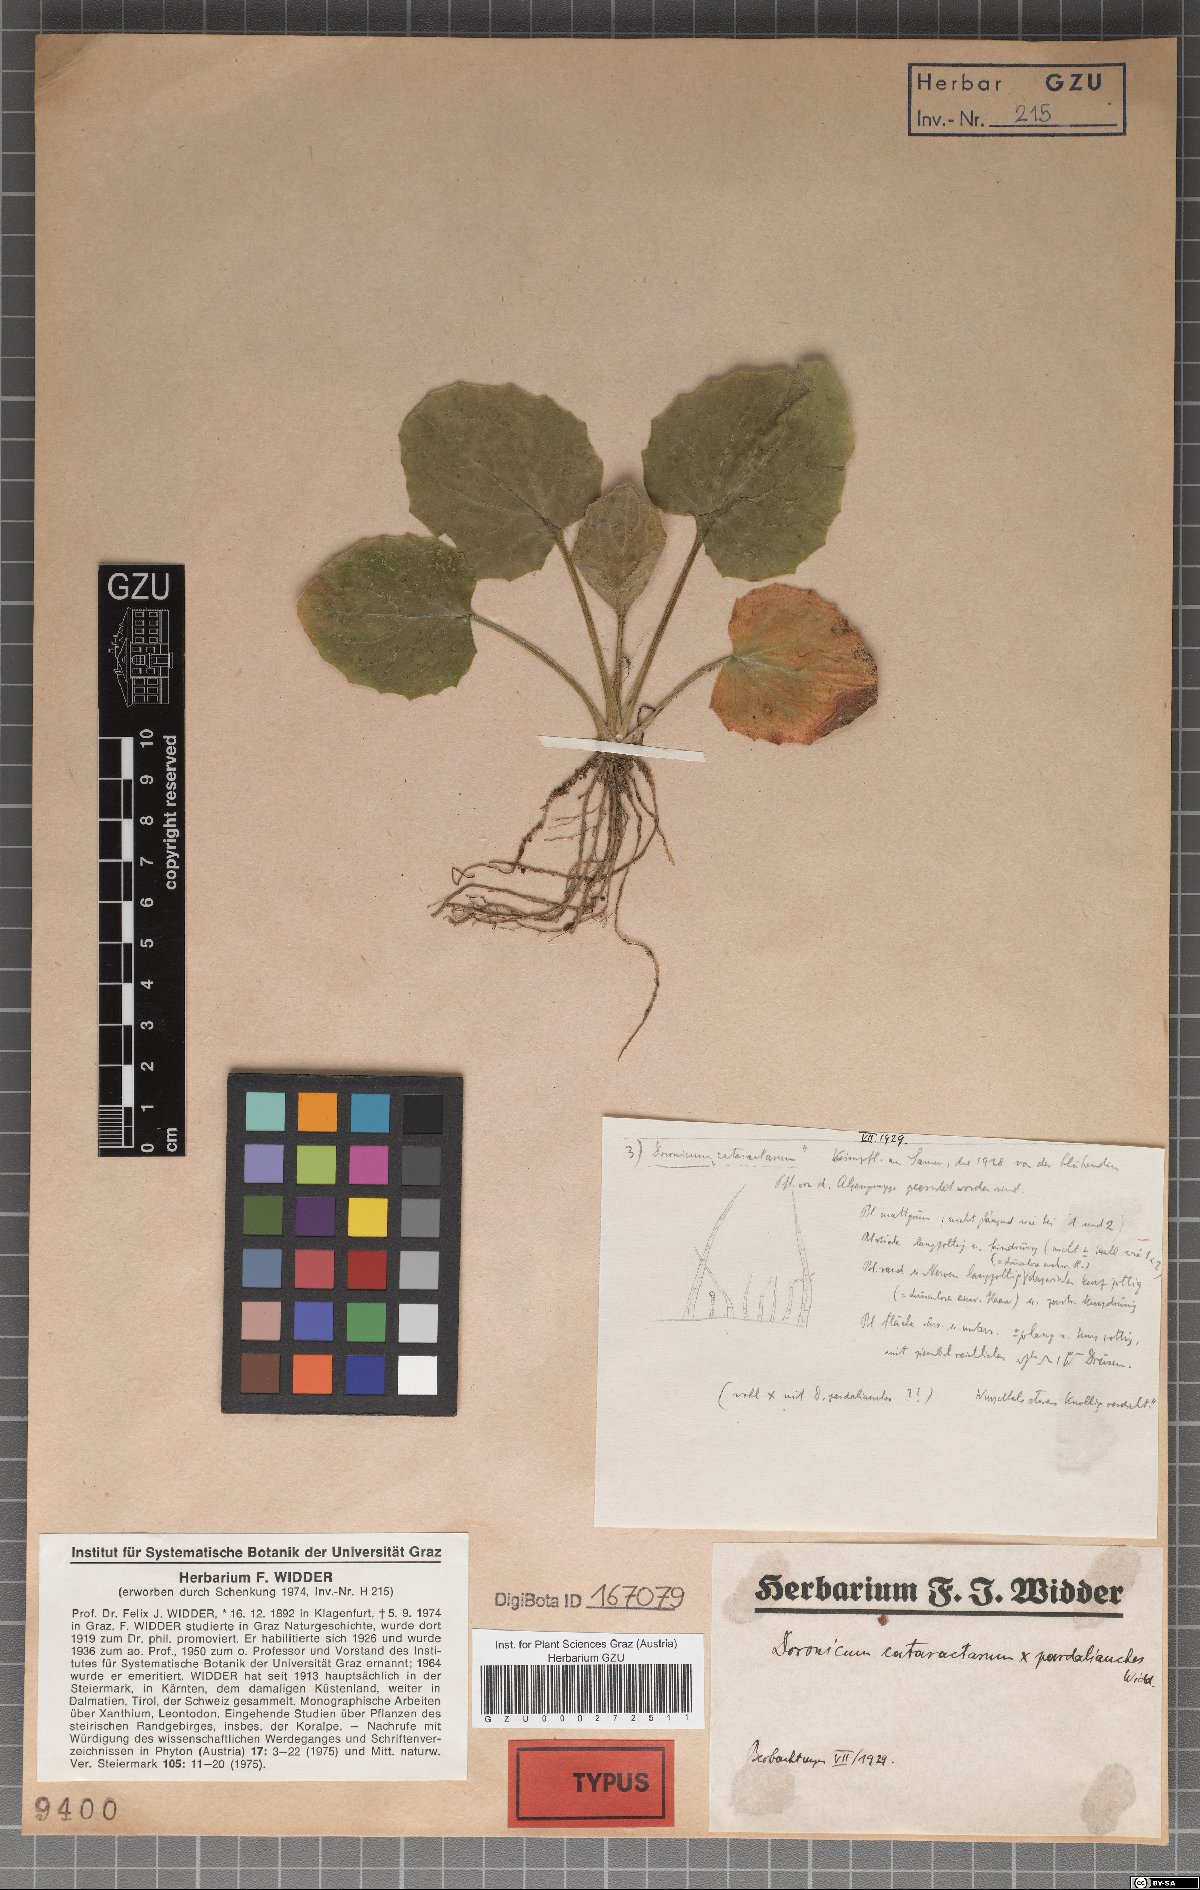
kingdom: Plantae
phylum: Tracheophyta
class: Magnoliopsida
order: Asterales
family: Asteraceae
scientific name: Asteraceae
